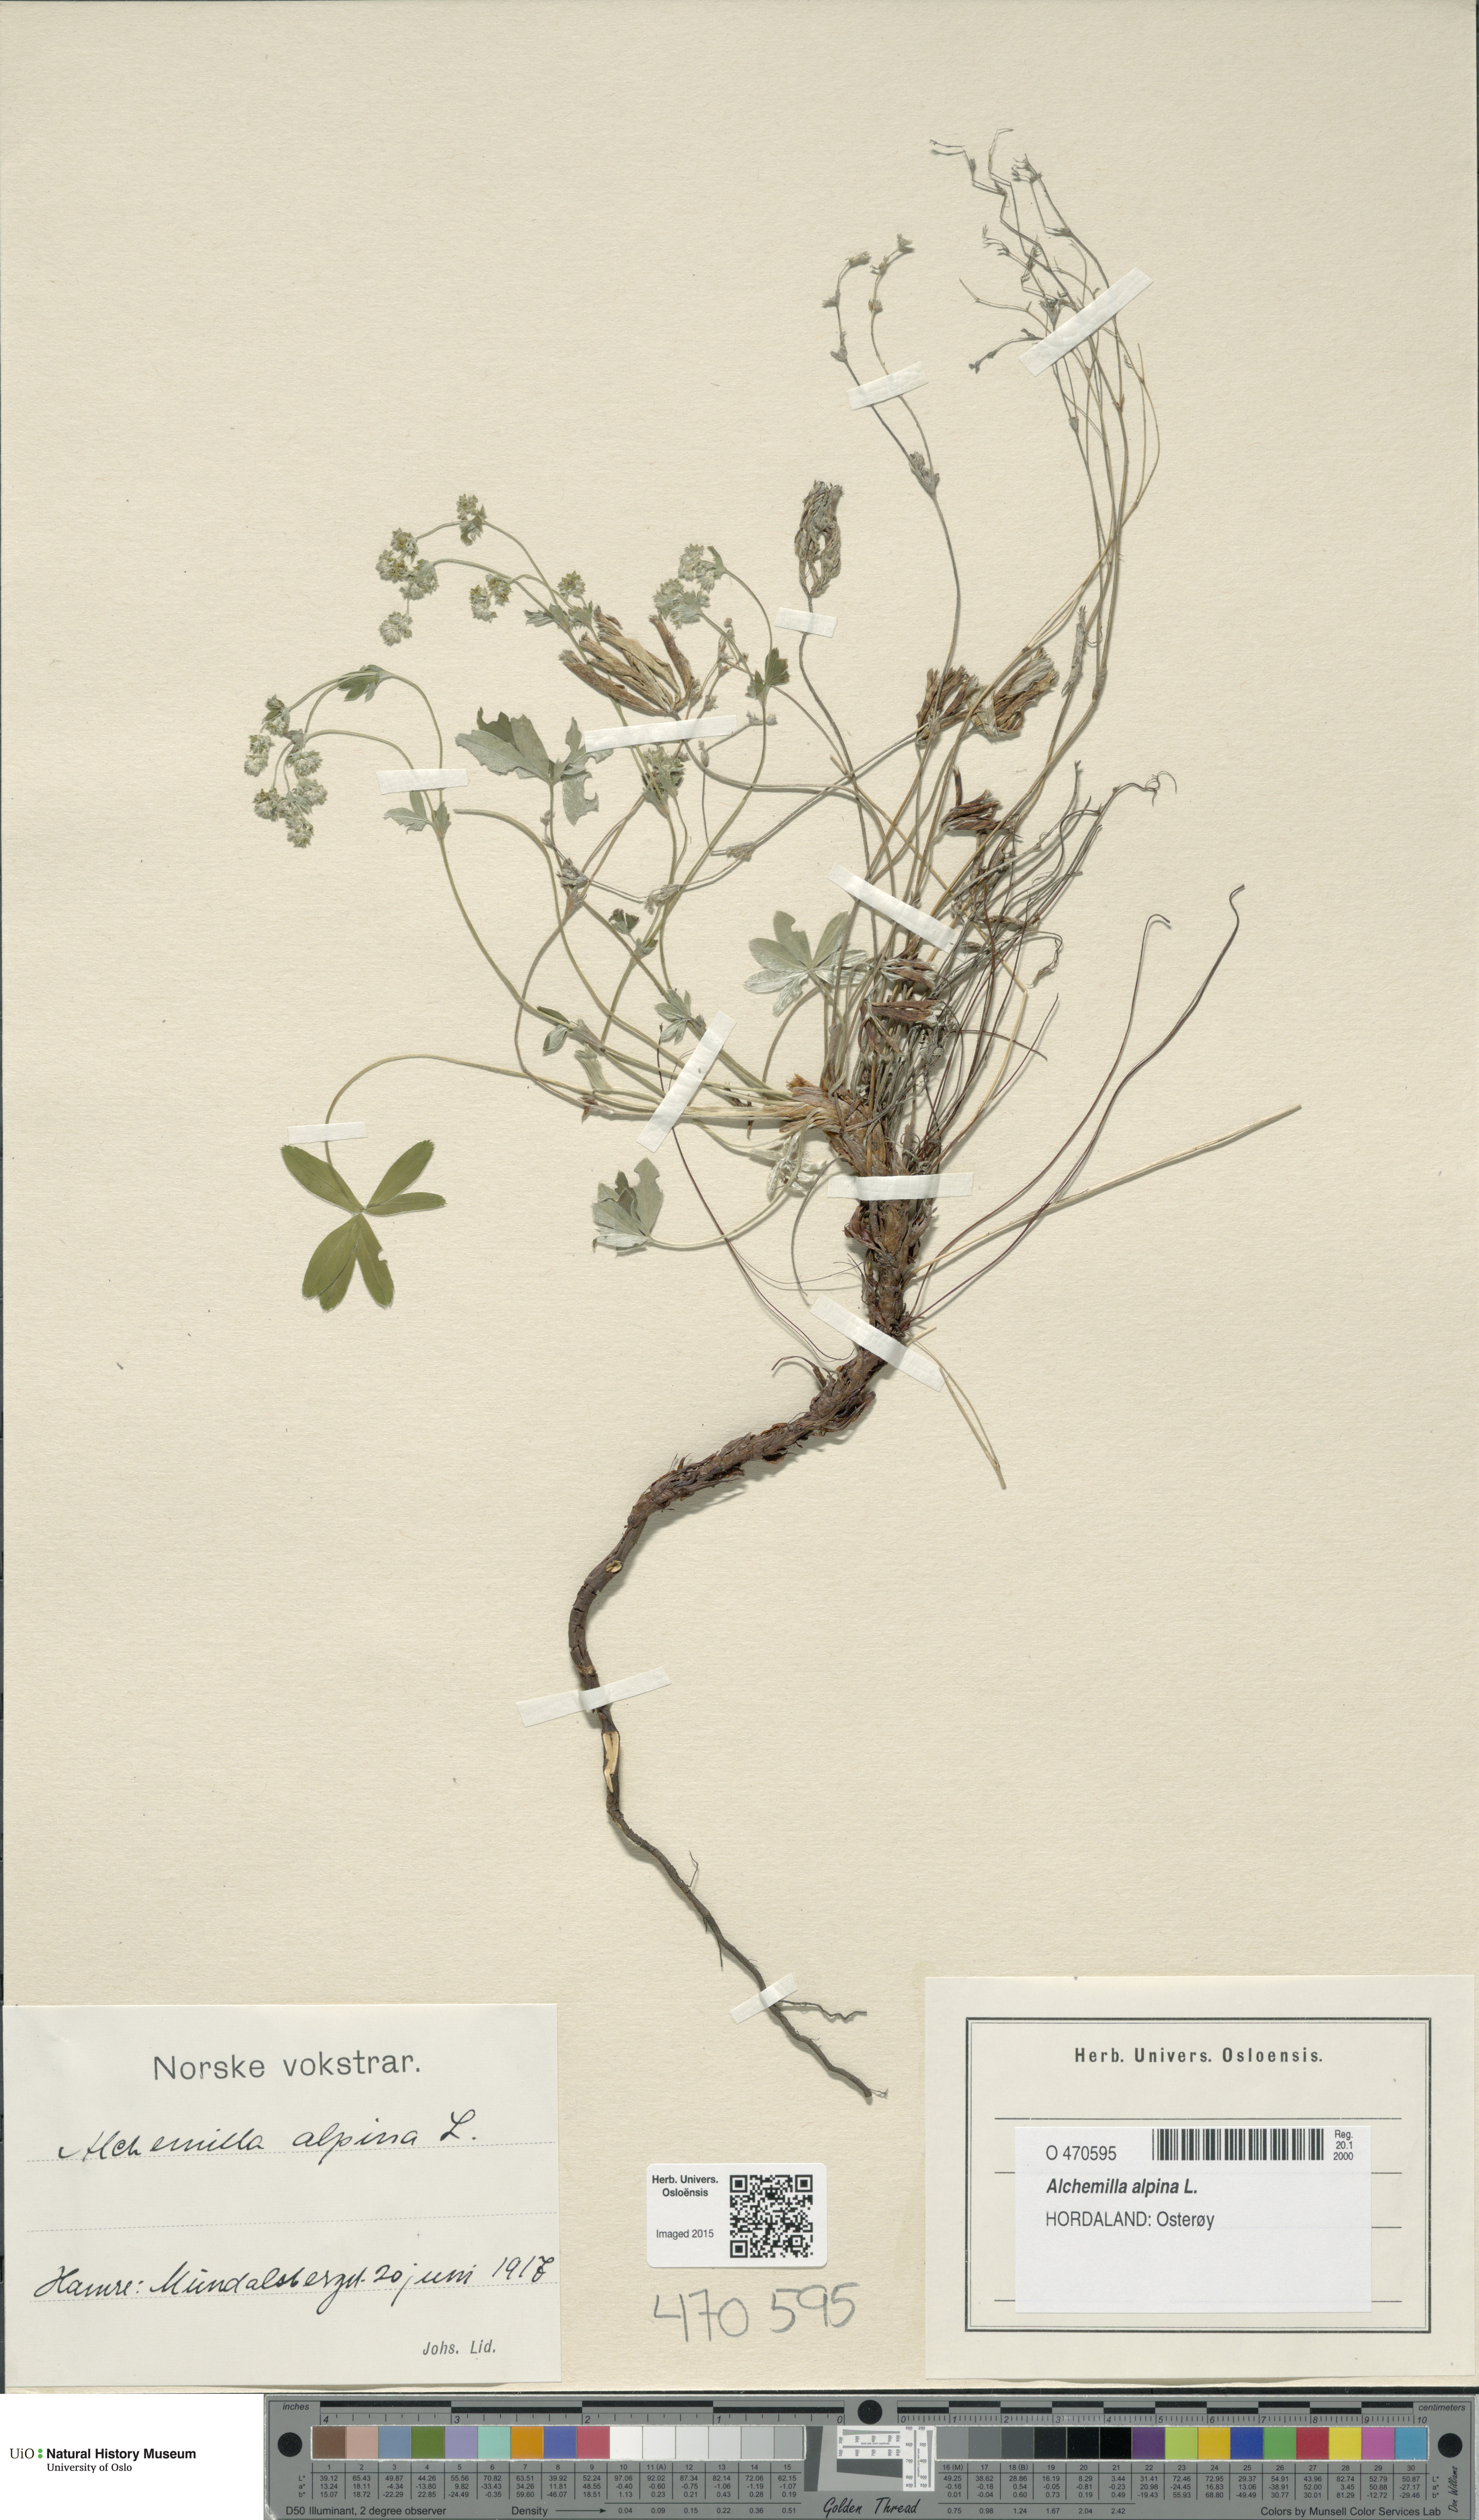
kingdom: Plantae
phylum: Tracheophyta
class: Magnoliopsida
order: Rosales
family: Rosaceae
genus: Alchemilla
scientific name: Alchemilla alpina
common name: Alpine lady's-mantle
